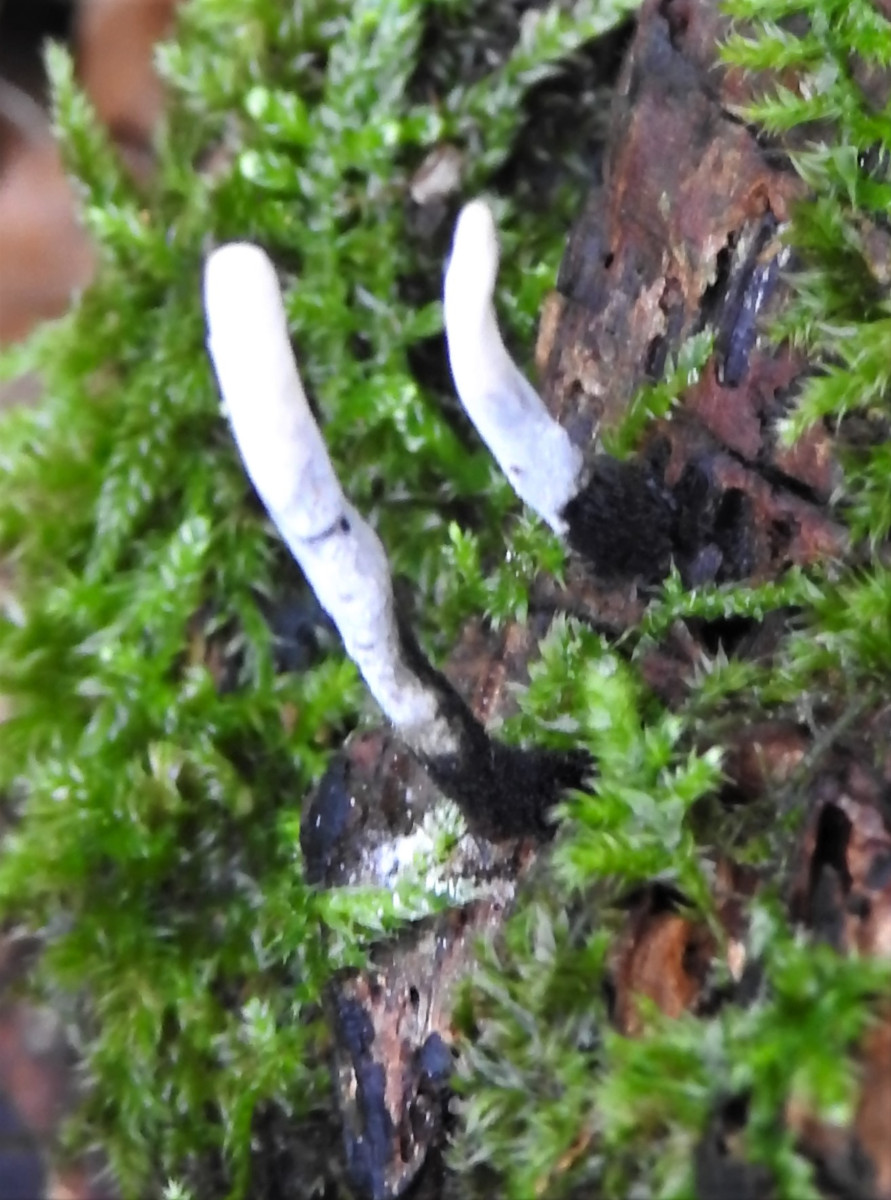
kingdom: Fungi
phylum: Ascomycota
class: Sordariomycetes
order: Xylariales
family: Xylariaceae
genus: Xylaria
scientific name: Xylaria hypoxylon
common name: grenet stødsvamp
